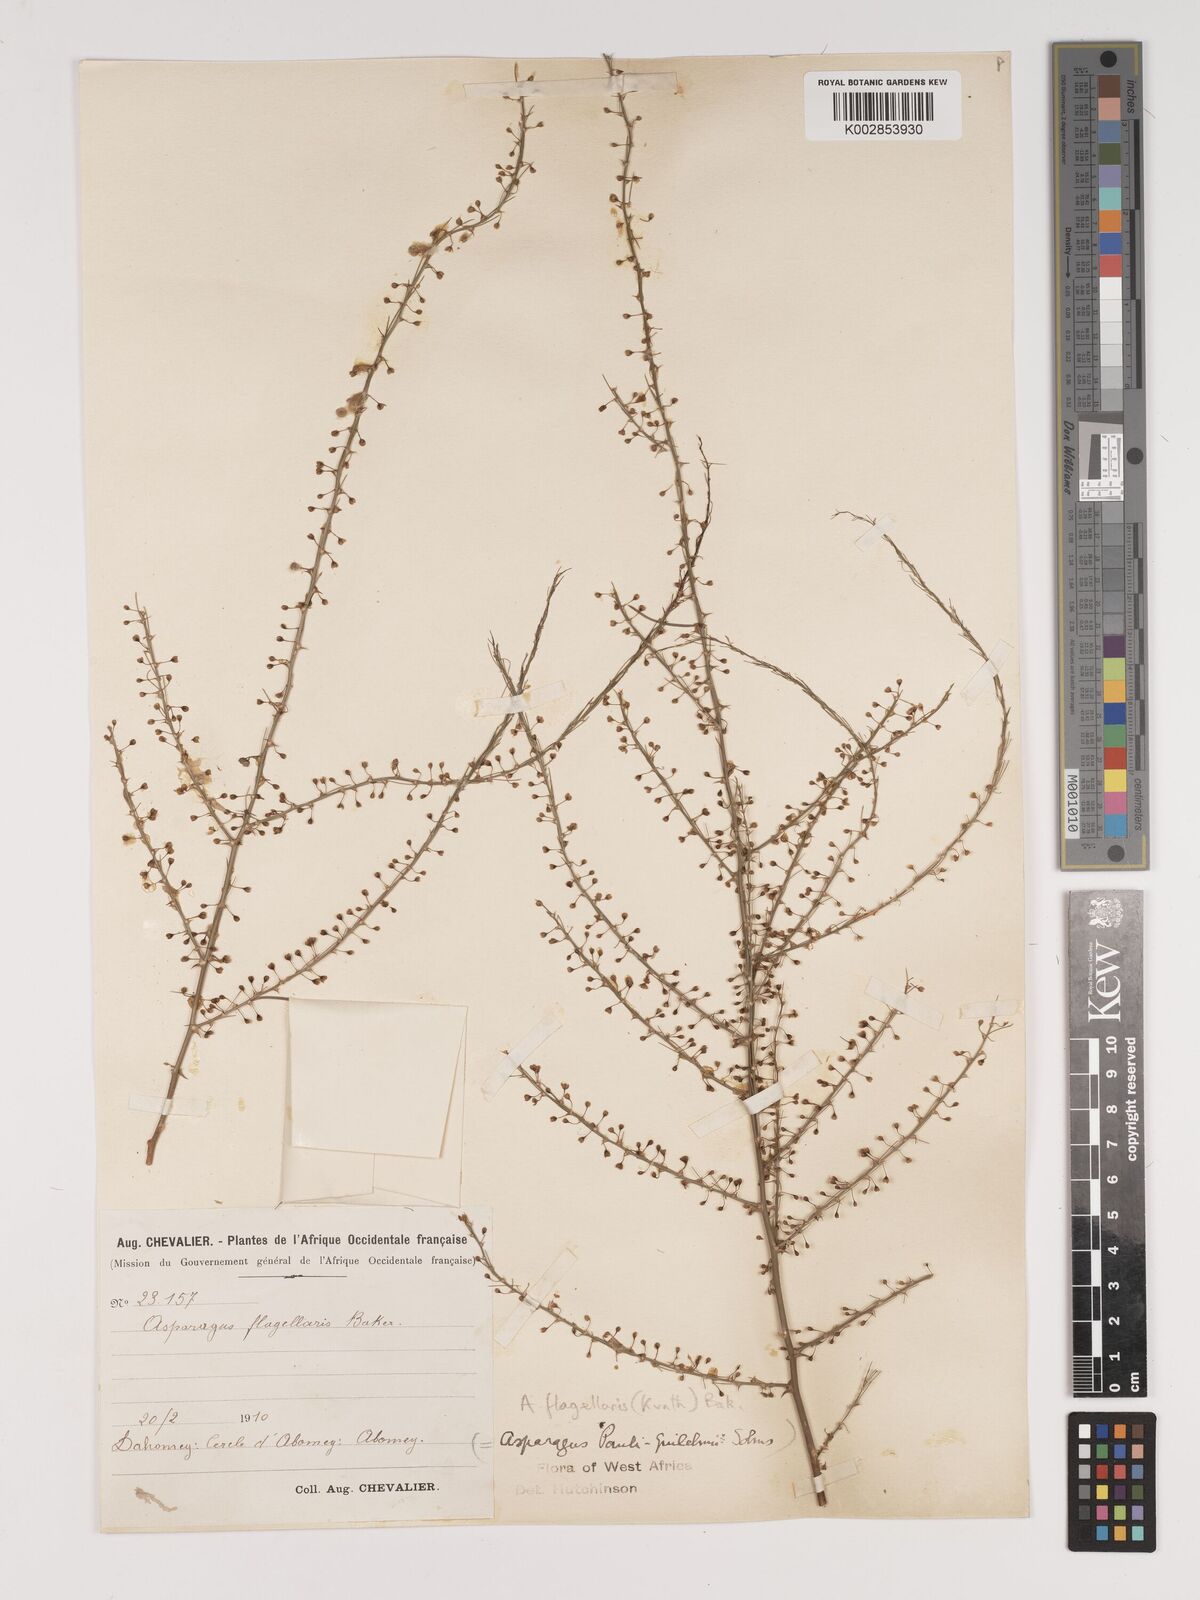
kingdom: Plantae
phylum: Tracheophyta
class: Liliopsida
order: Asparagales
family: Asparagaceae
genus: Asparagus
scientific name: Asparagus flagellaris
